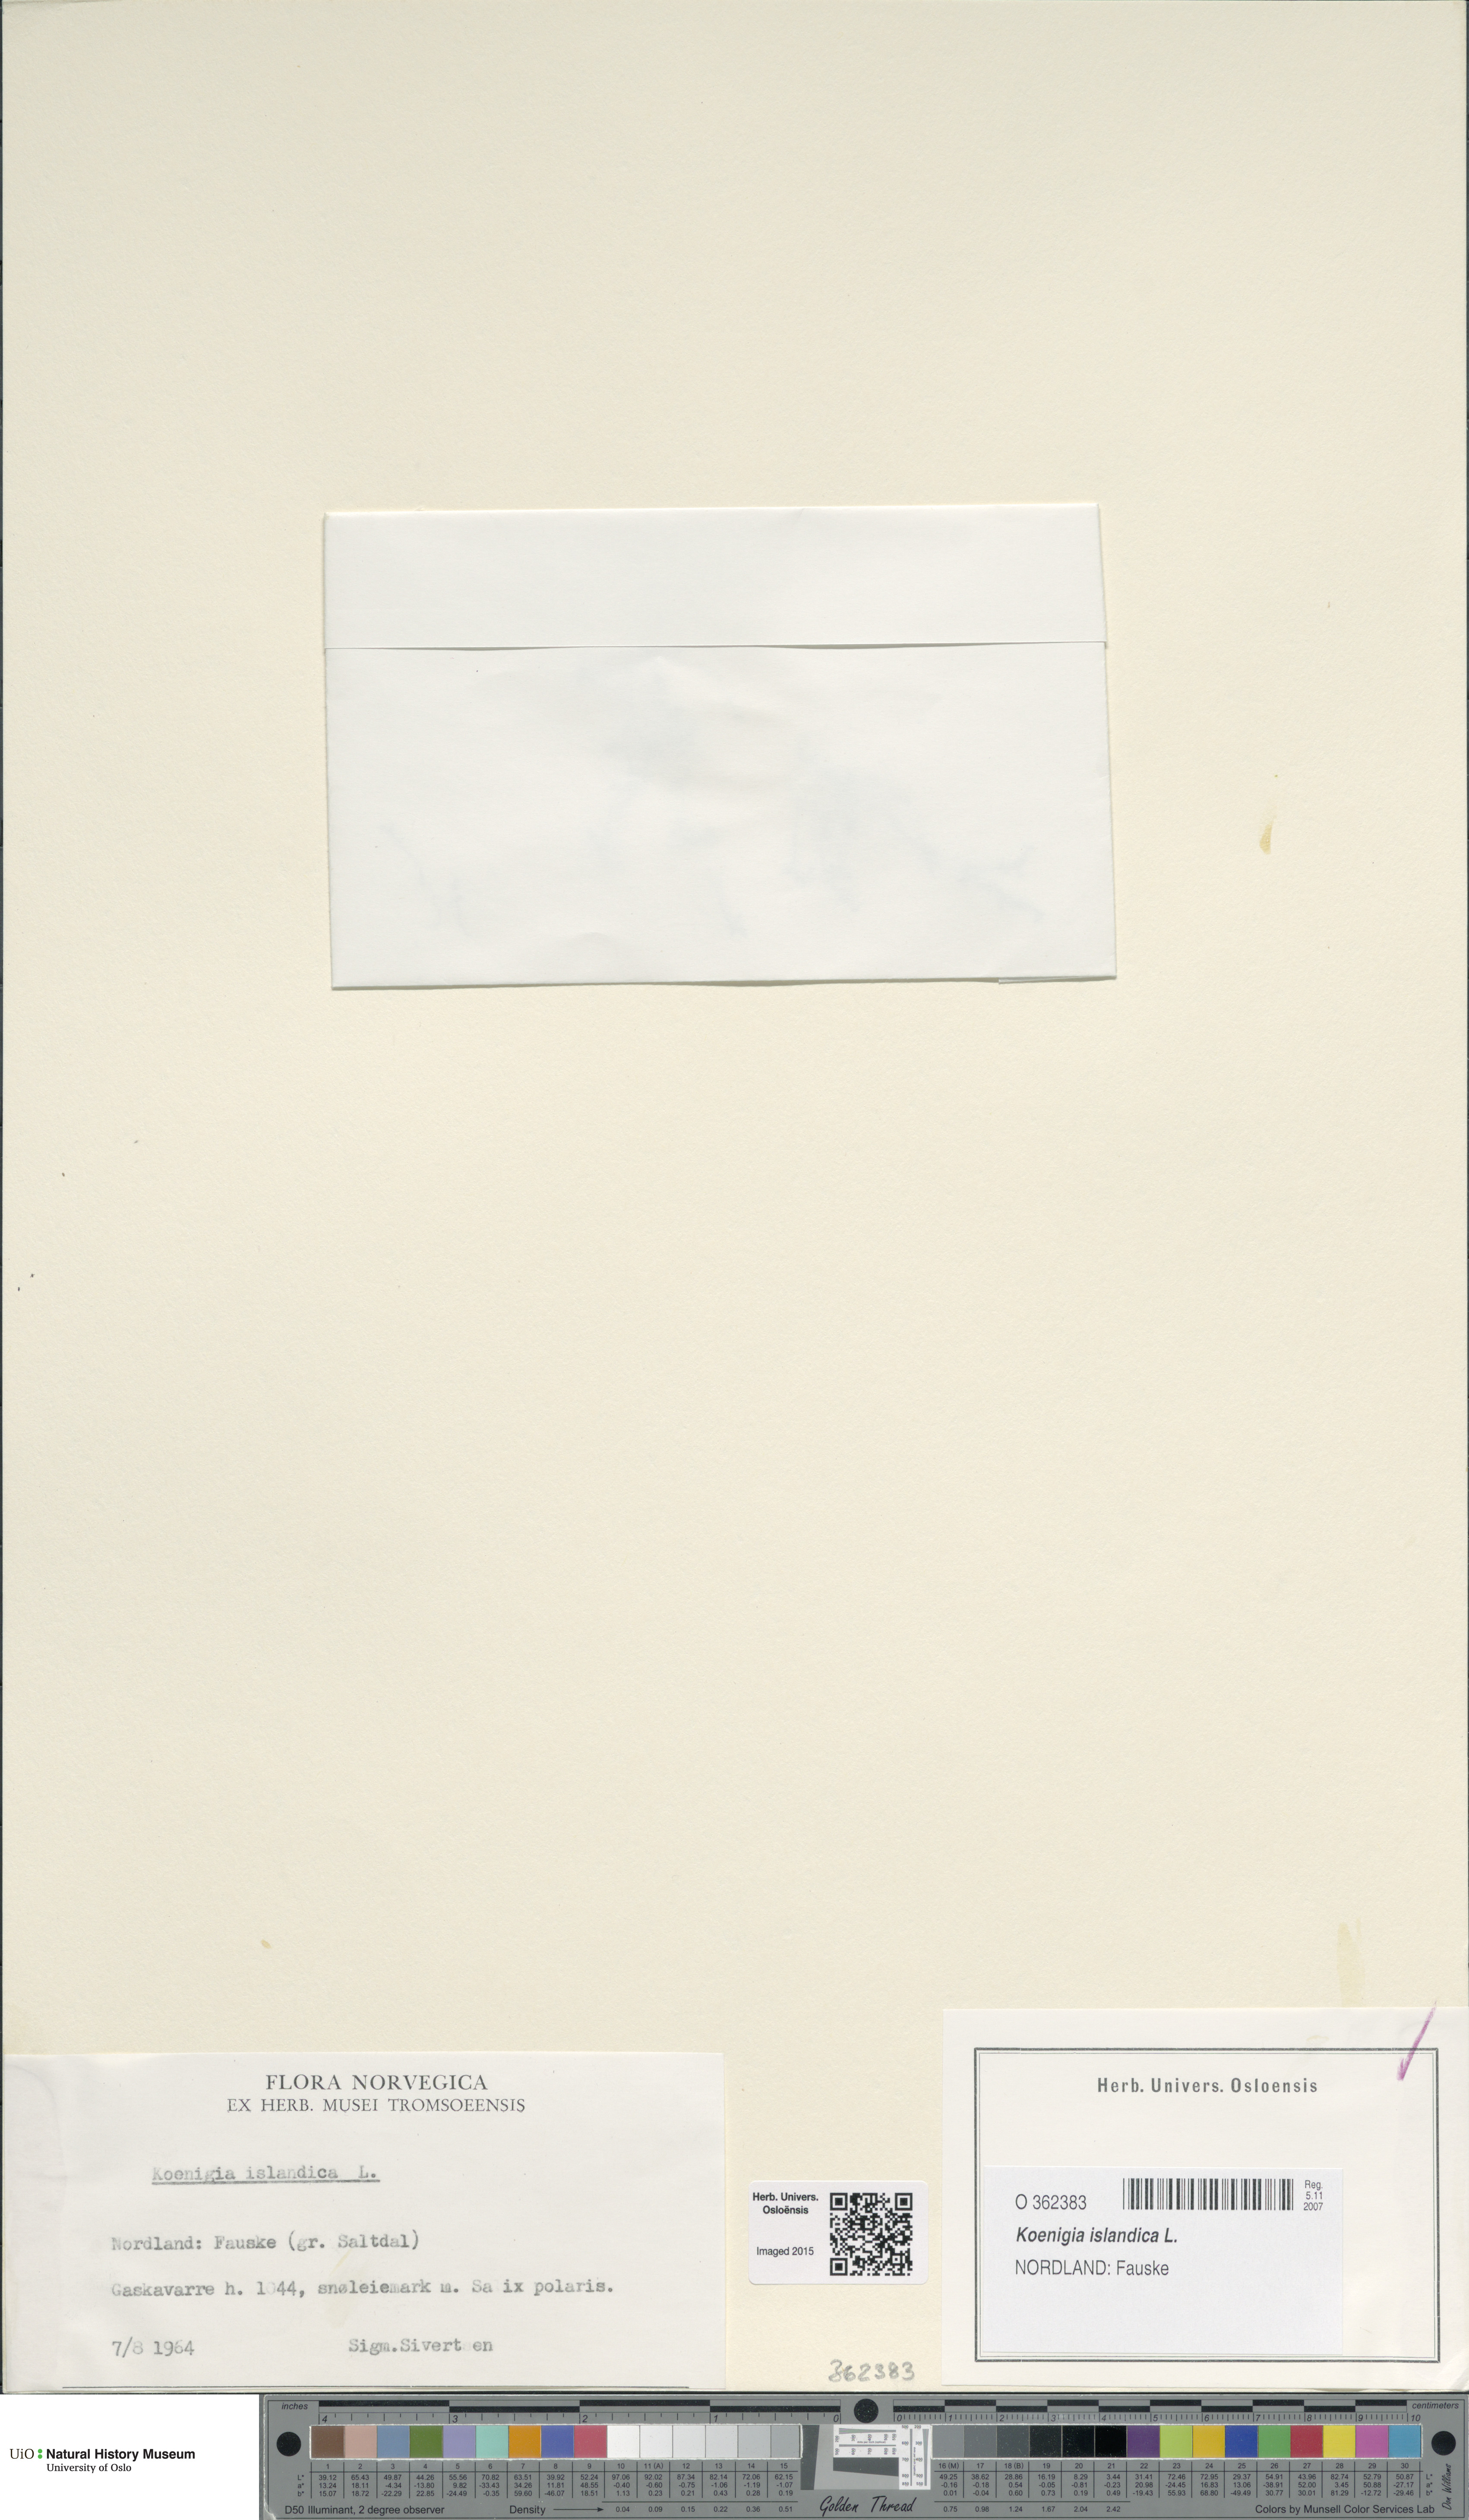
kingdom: Plantae
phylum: Tracheophyta
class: Magnoliopsida
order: Caryophyllales
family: Polygonaceae
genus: Koenigia
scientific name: Koenigia islandica
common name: Iceland-purslane
